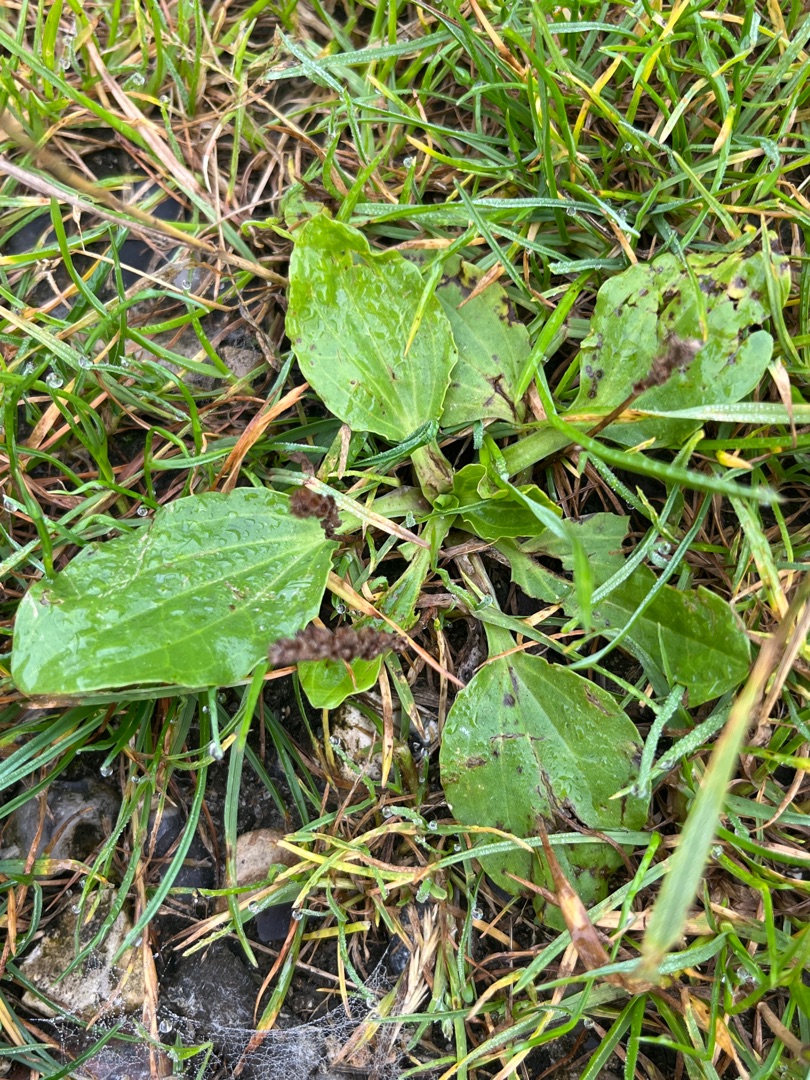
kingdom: Plantae
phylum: Tracheophyta
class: Magnoliopsida
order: Lamiales
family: Plantaginaceae
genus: Plantago
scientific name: Plantago major
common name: Glat vejbred
